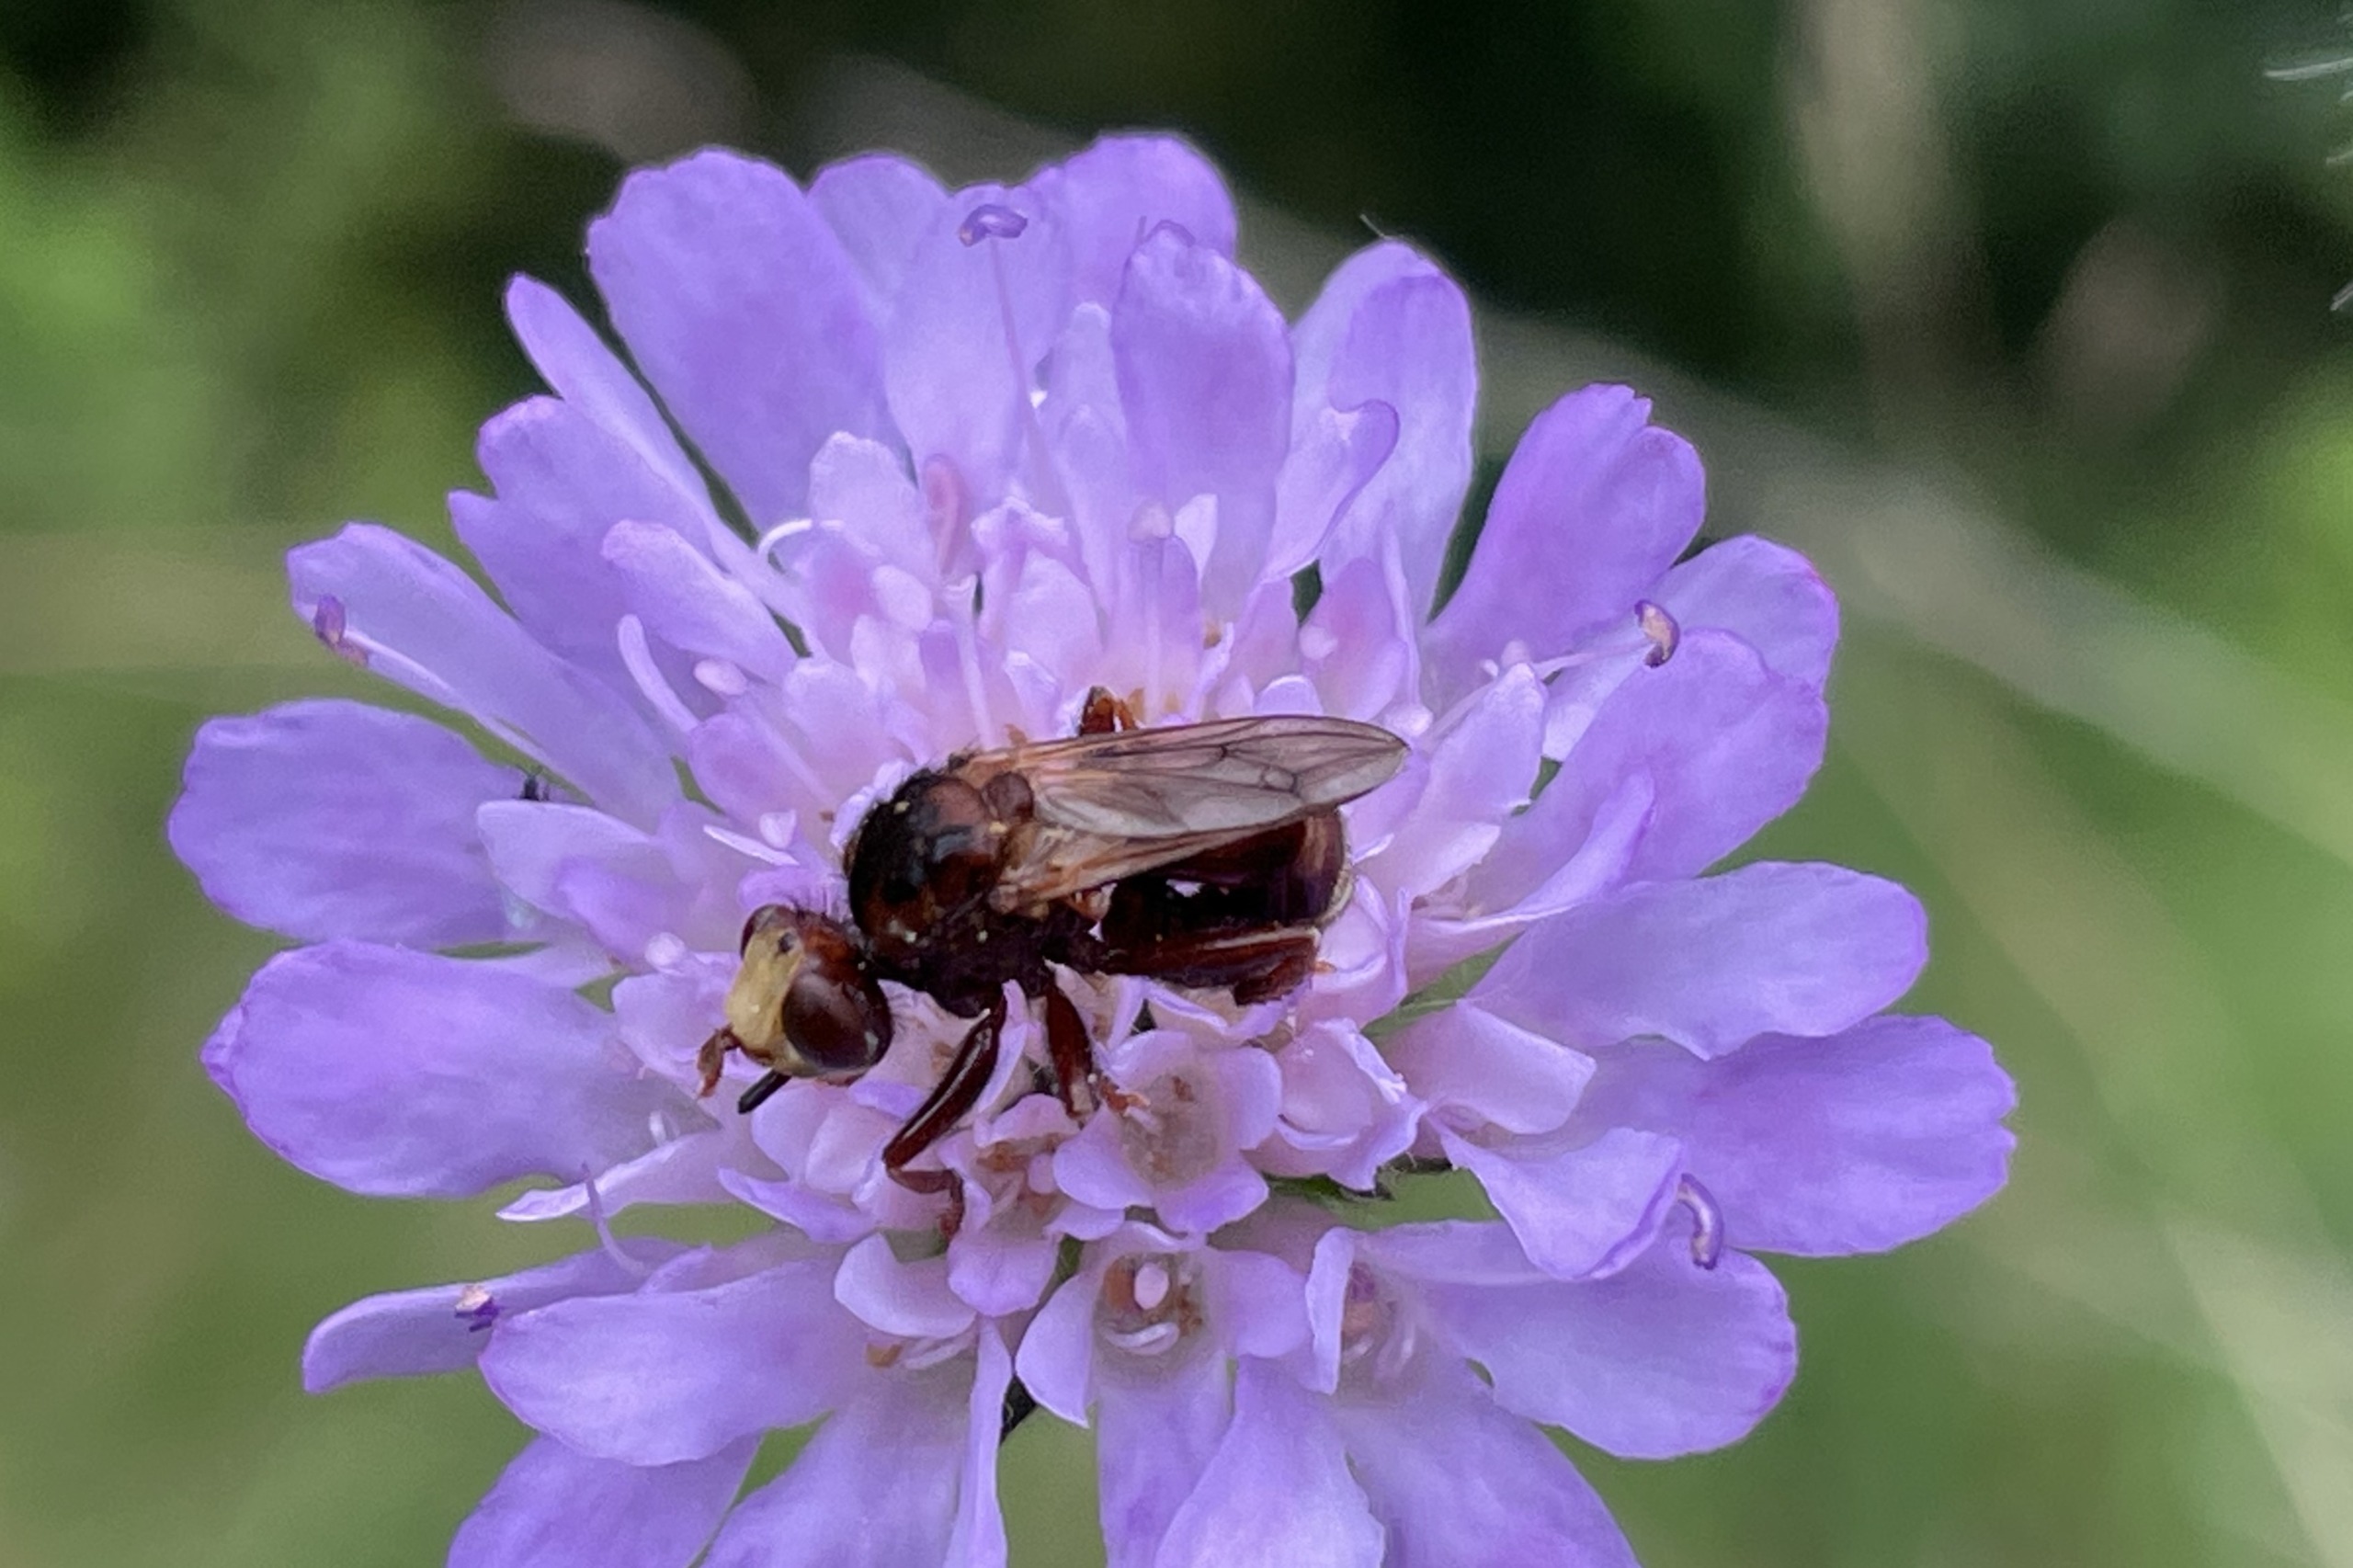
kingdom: Animalia
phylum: Arthropoda
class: Insecta
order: Diptera
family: Conopidae
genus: Sicus
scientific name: Sicus ferrugineus
